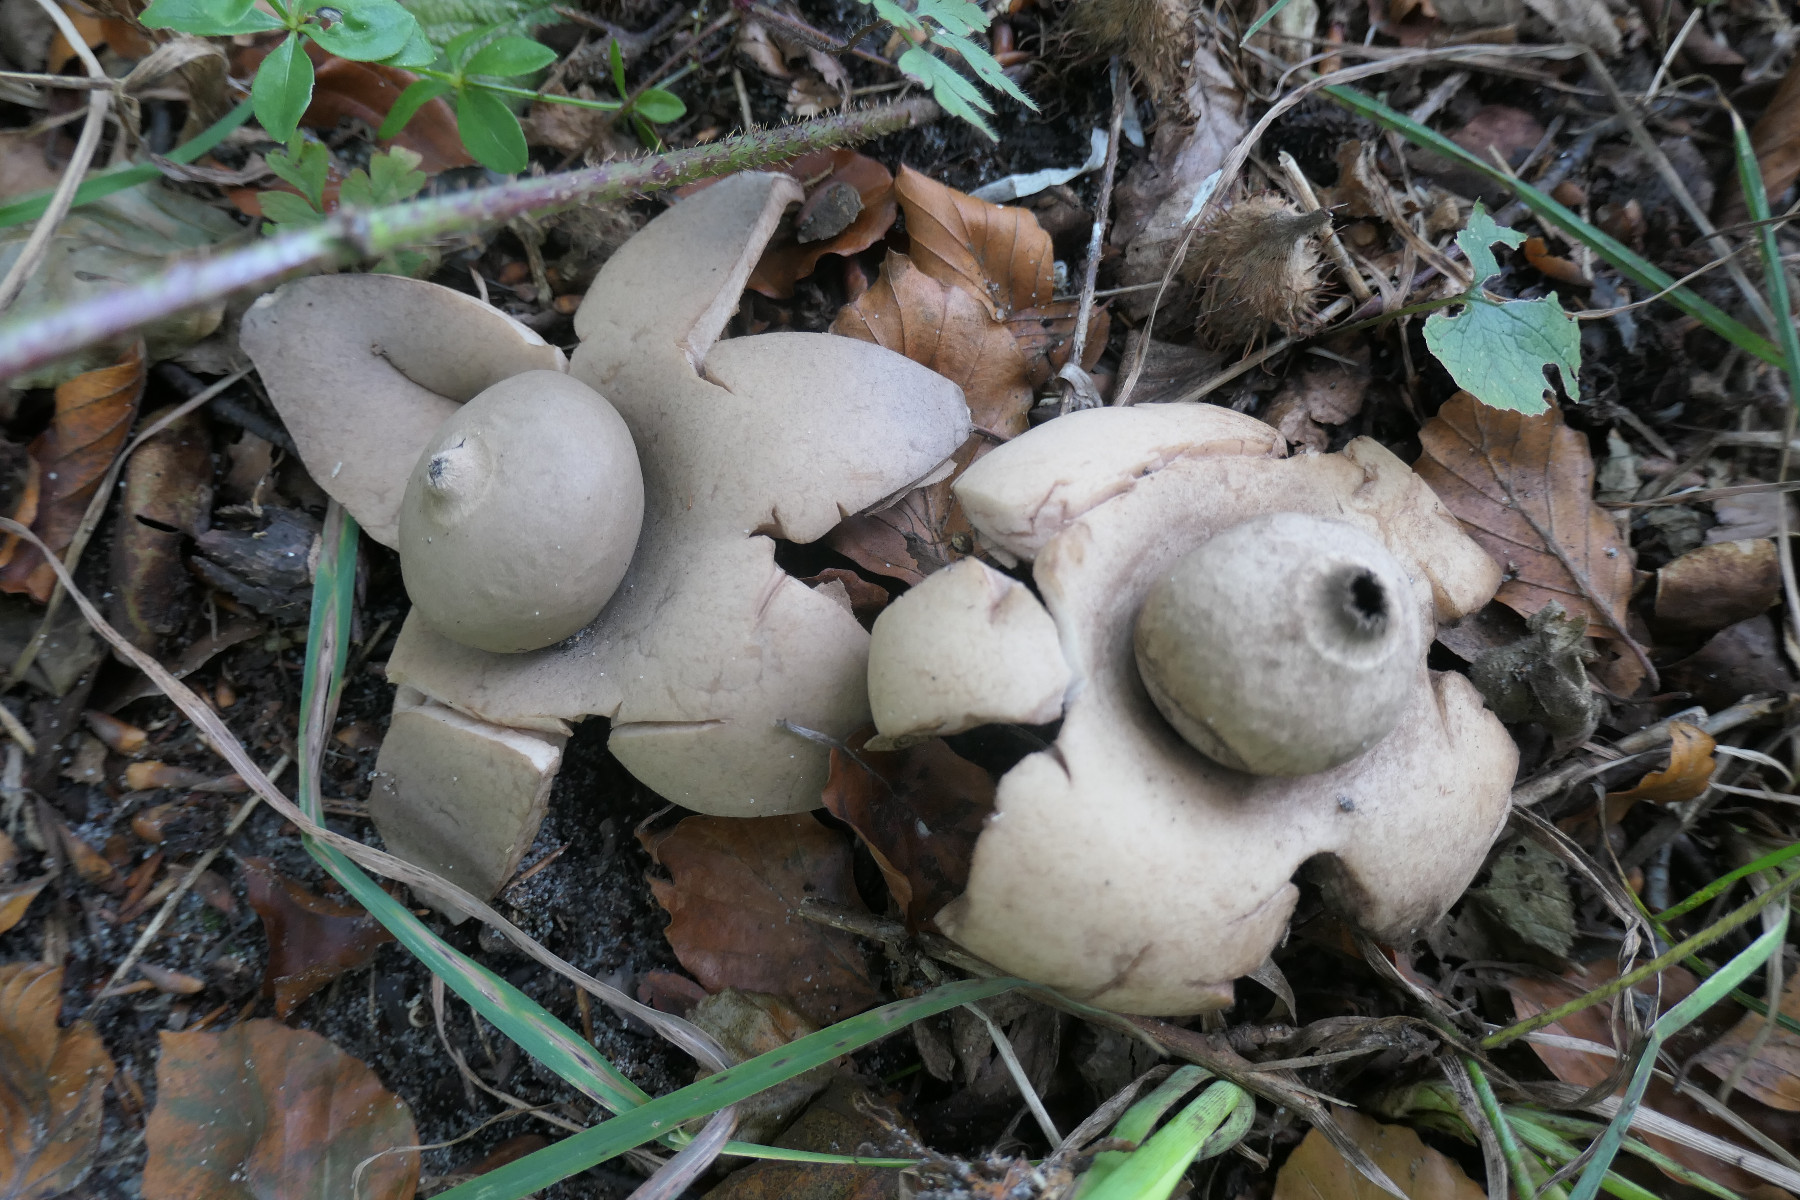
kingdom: Fungi
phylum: Basidiomycota
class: Agaricomycetes
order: Geastrales
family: Geastraceae
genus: Geastrum
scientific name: Geastrum michelianum
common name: kødet stjernebold
